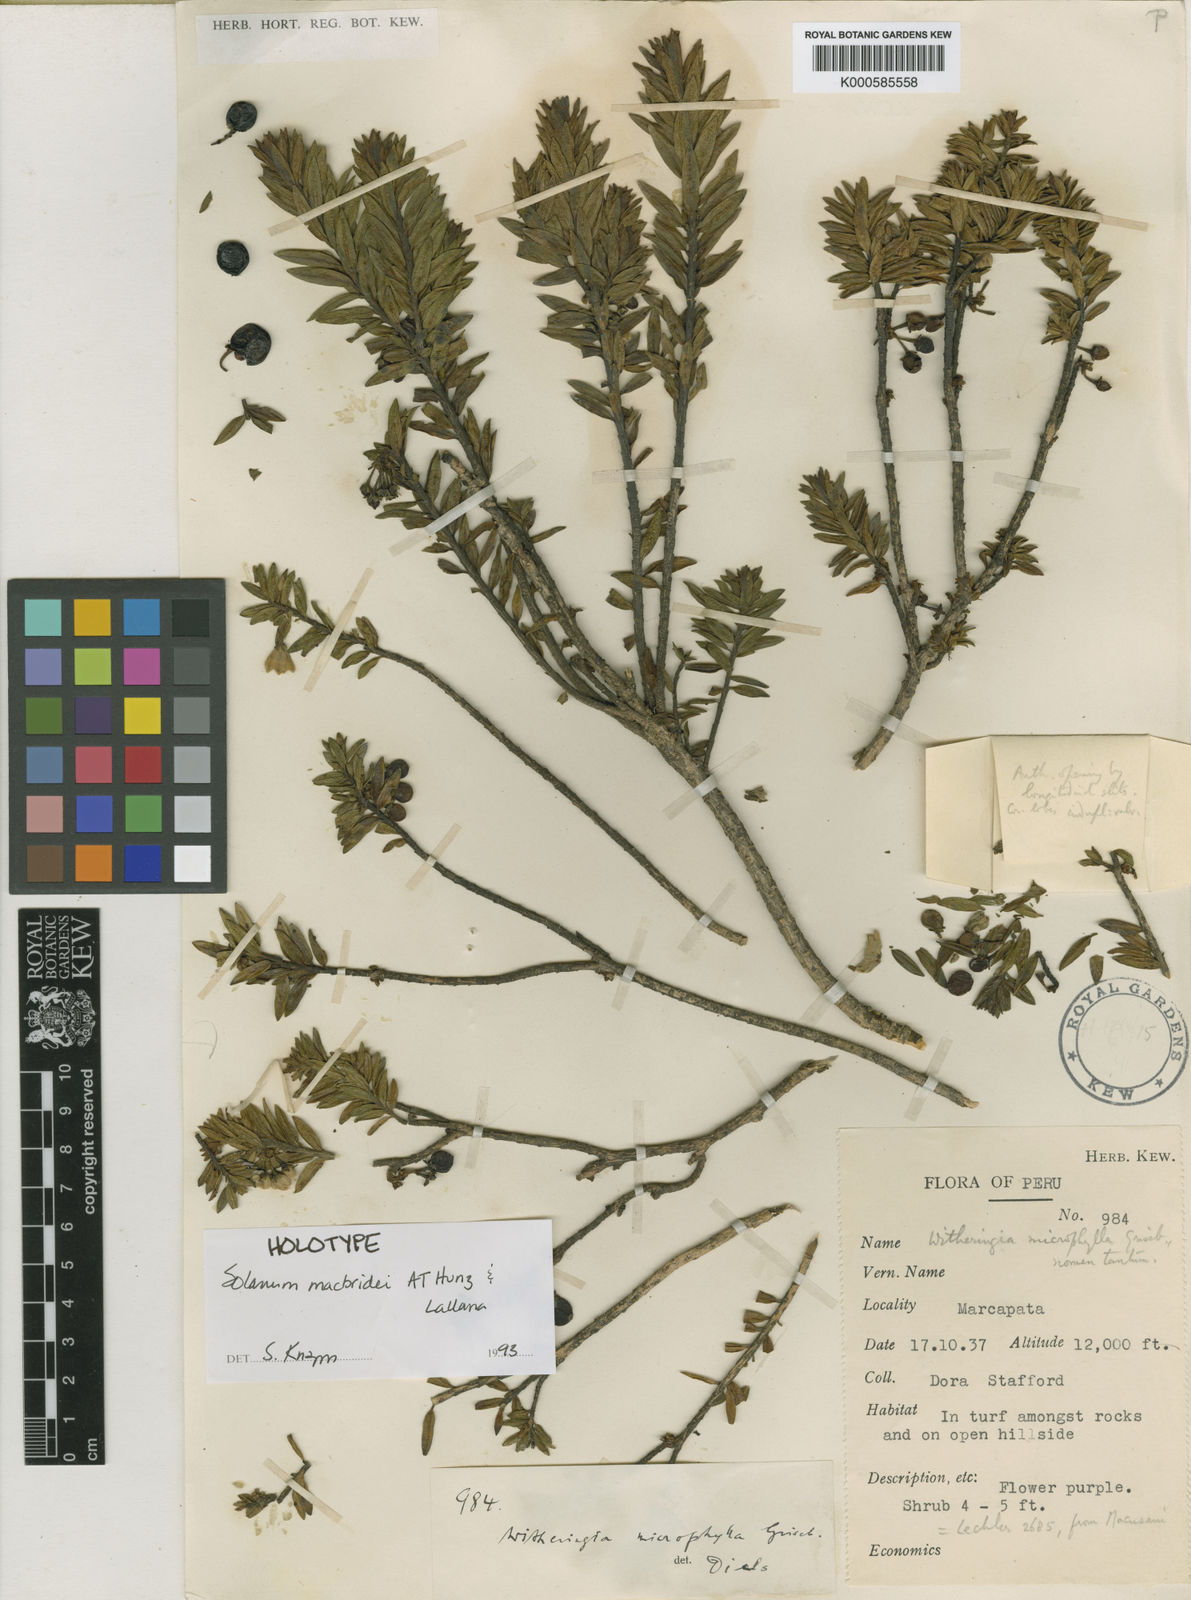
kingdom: Plantae
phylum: Tracheophyta
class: Magnoliopsida
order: Solanales
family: Solanaceae
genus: Solanum
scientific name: Solanum macbridei
